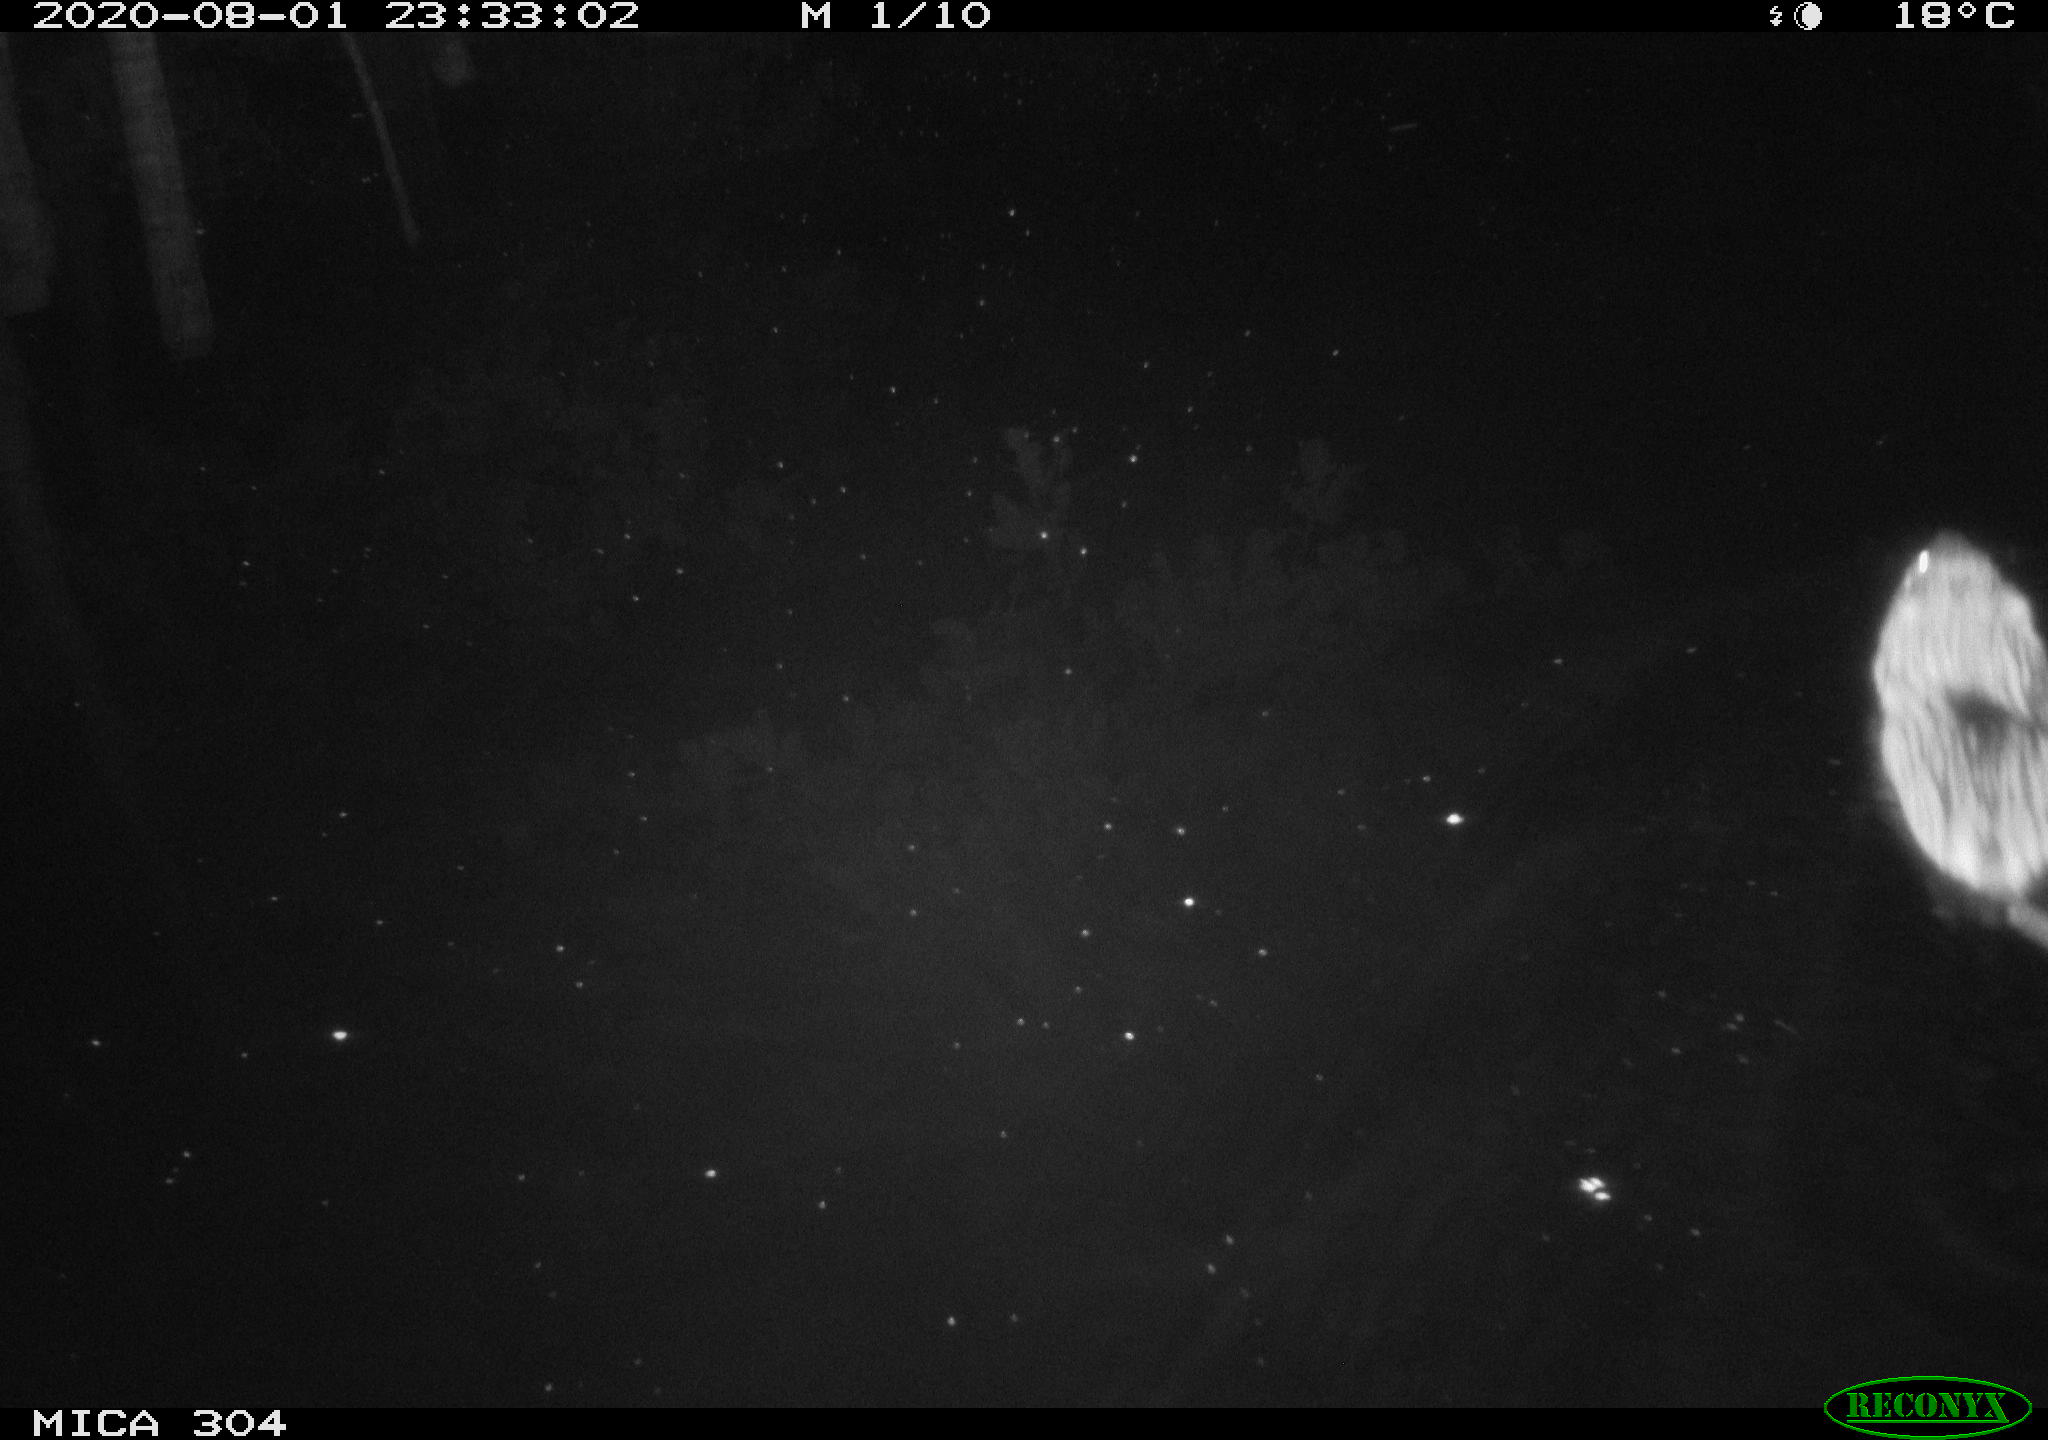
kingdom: Animalia
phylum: Chordata
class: Mammalia
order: Rodentia
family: Cricetidae
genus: Ondatra
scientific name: Ondatra zibethicus
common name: Muskrat
